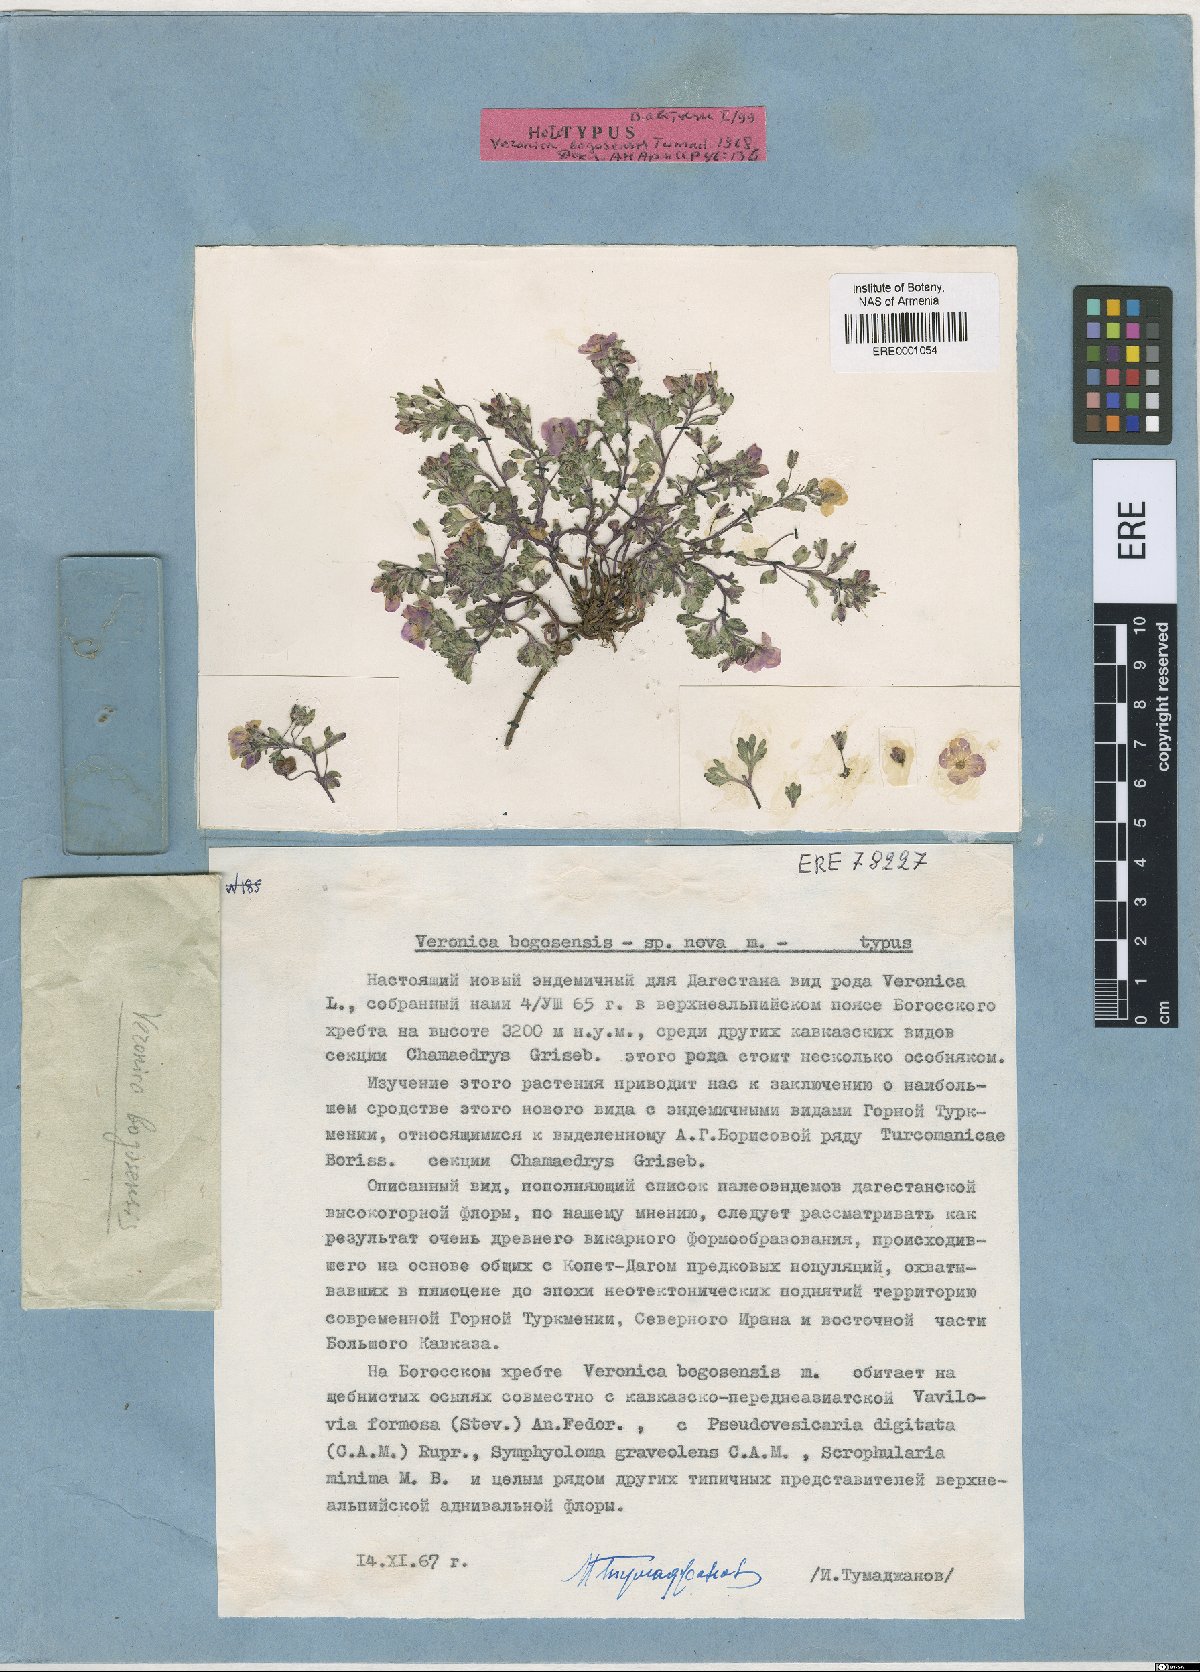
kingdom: Plantae
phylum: Tracheophyta
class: Magnoliopsida
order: Lamiales
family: Plantaginaceae
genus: Veronica
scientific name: Veronica bogosensis
